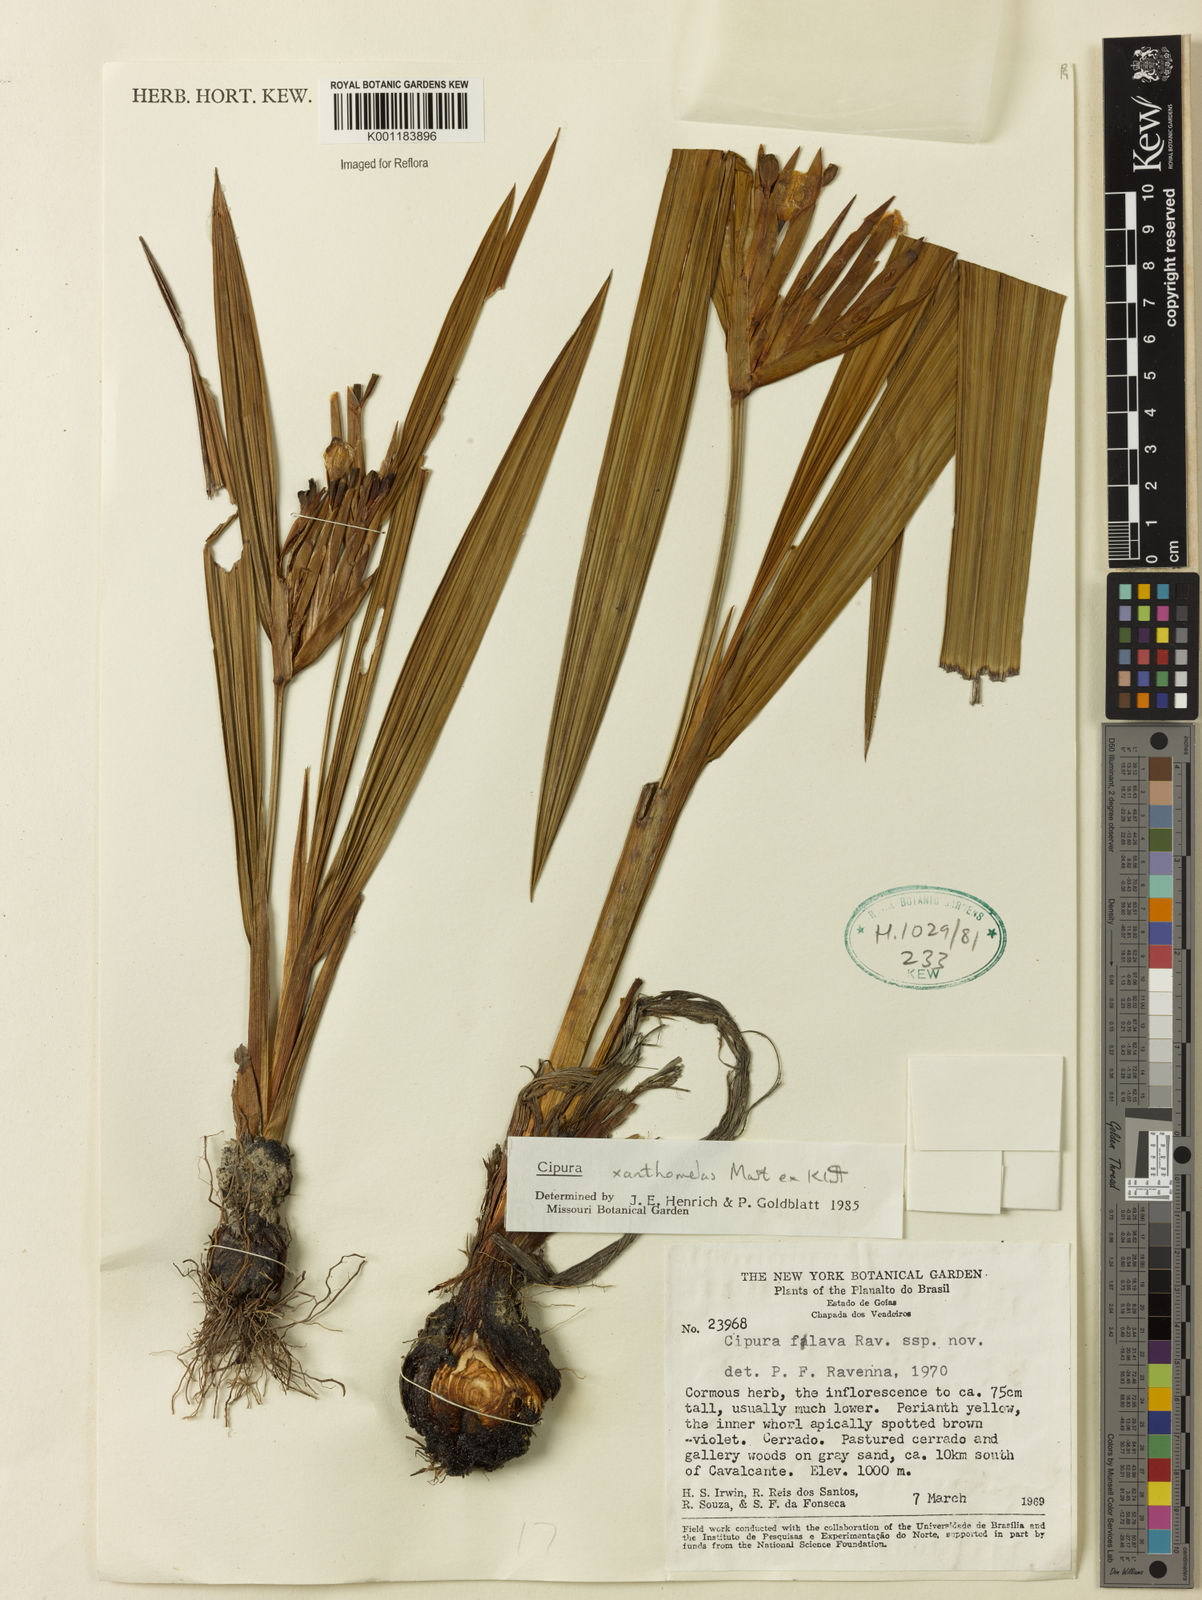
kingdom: Plantae
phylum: Tracheophyta
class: Liliopsida
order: Asparagales
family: Iridaceae
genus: Cipura
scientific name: Cipura xanthomelas
